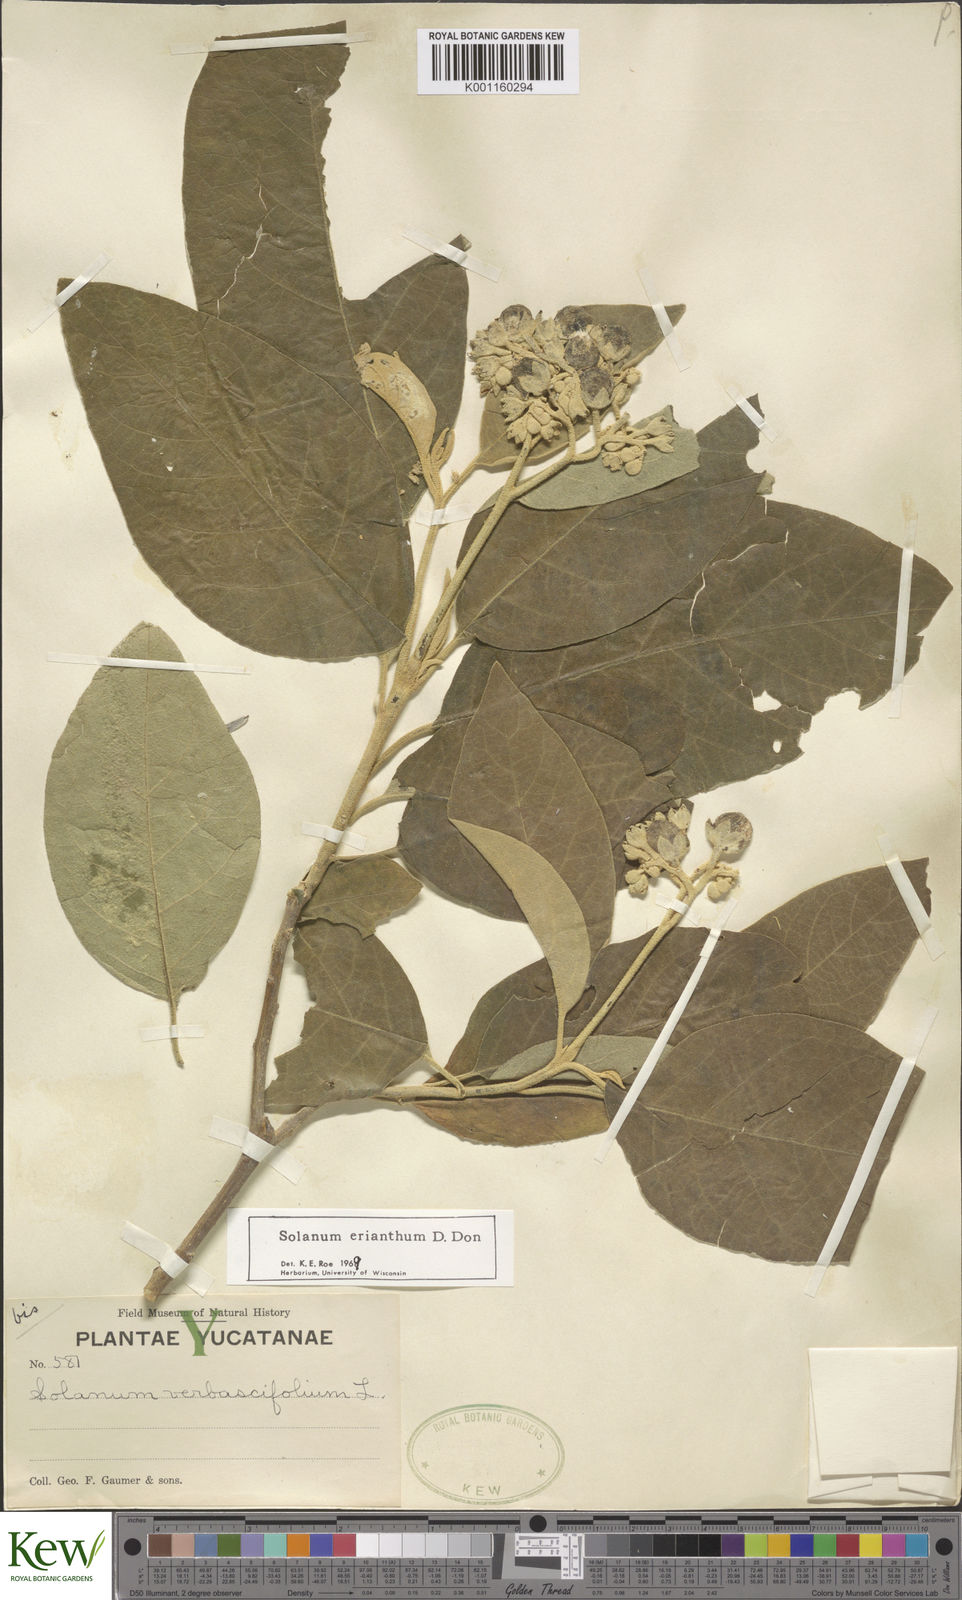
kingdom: Plantae
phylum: Tracheophyta
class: Magnoliopsida
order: Solanales
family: Solanaceae
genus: Solanum
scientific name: Solanum erianthum
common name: Tobacco-tree
